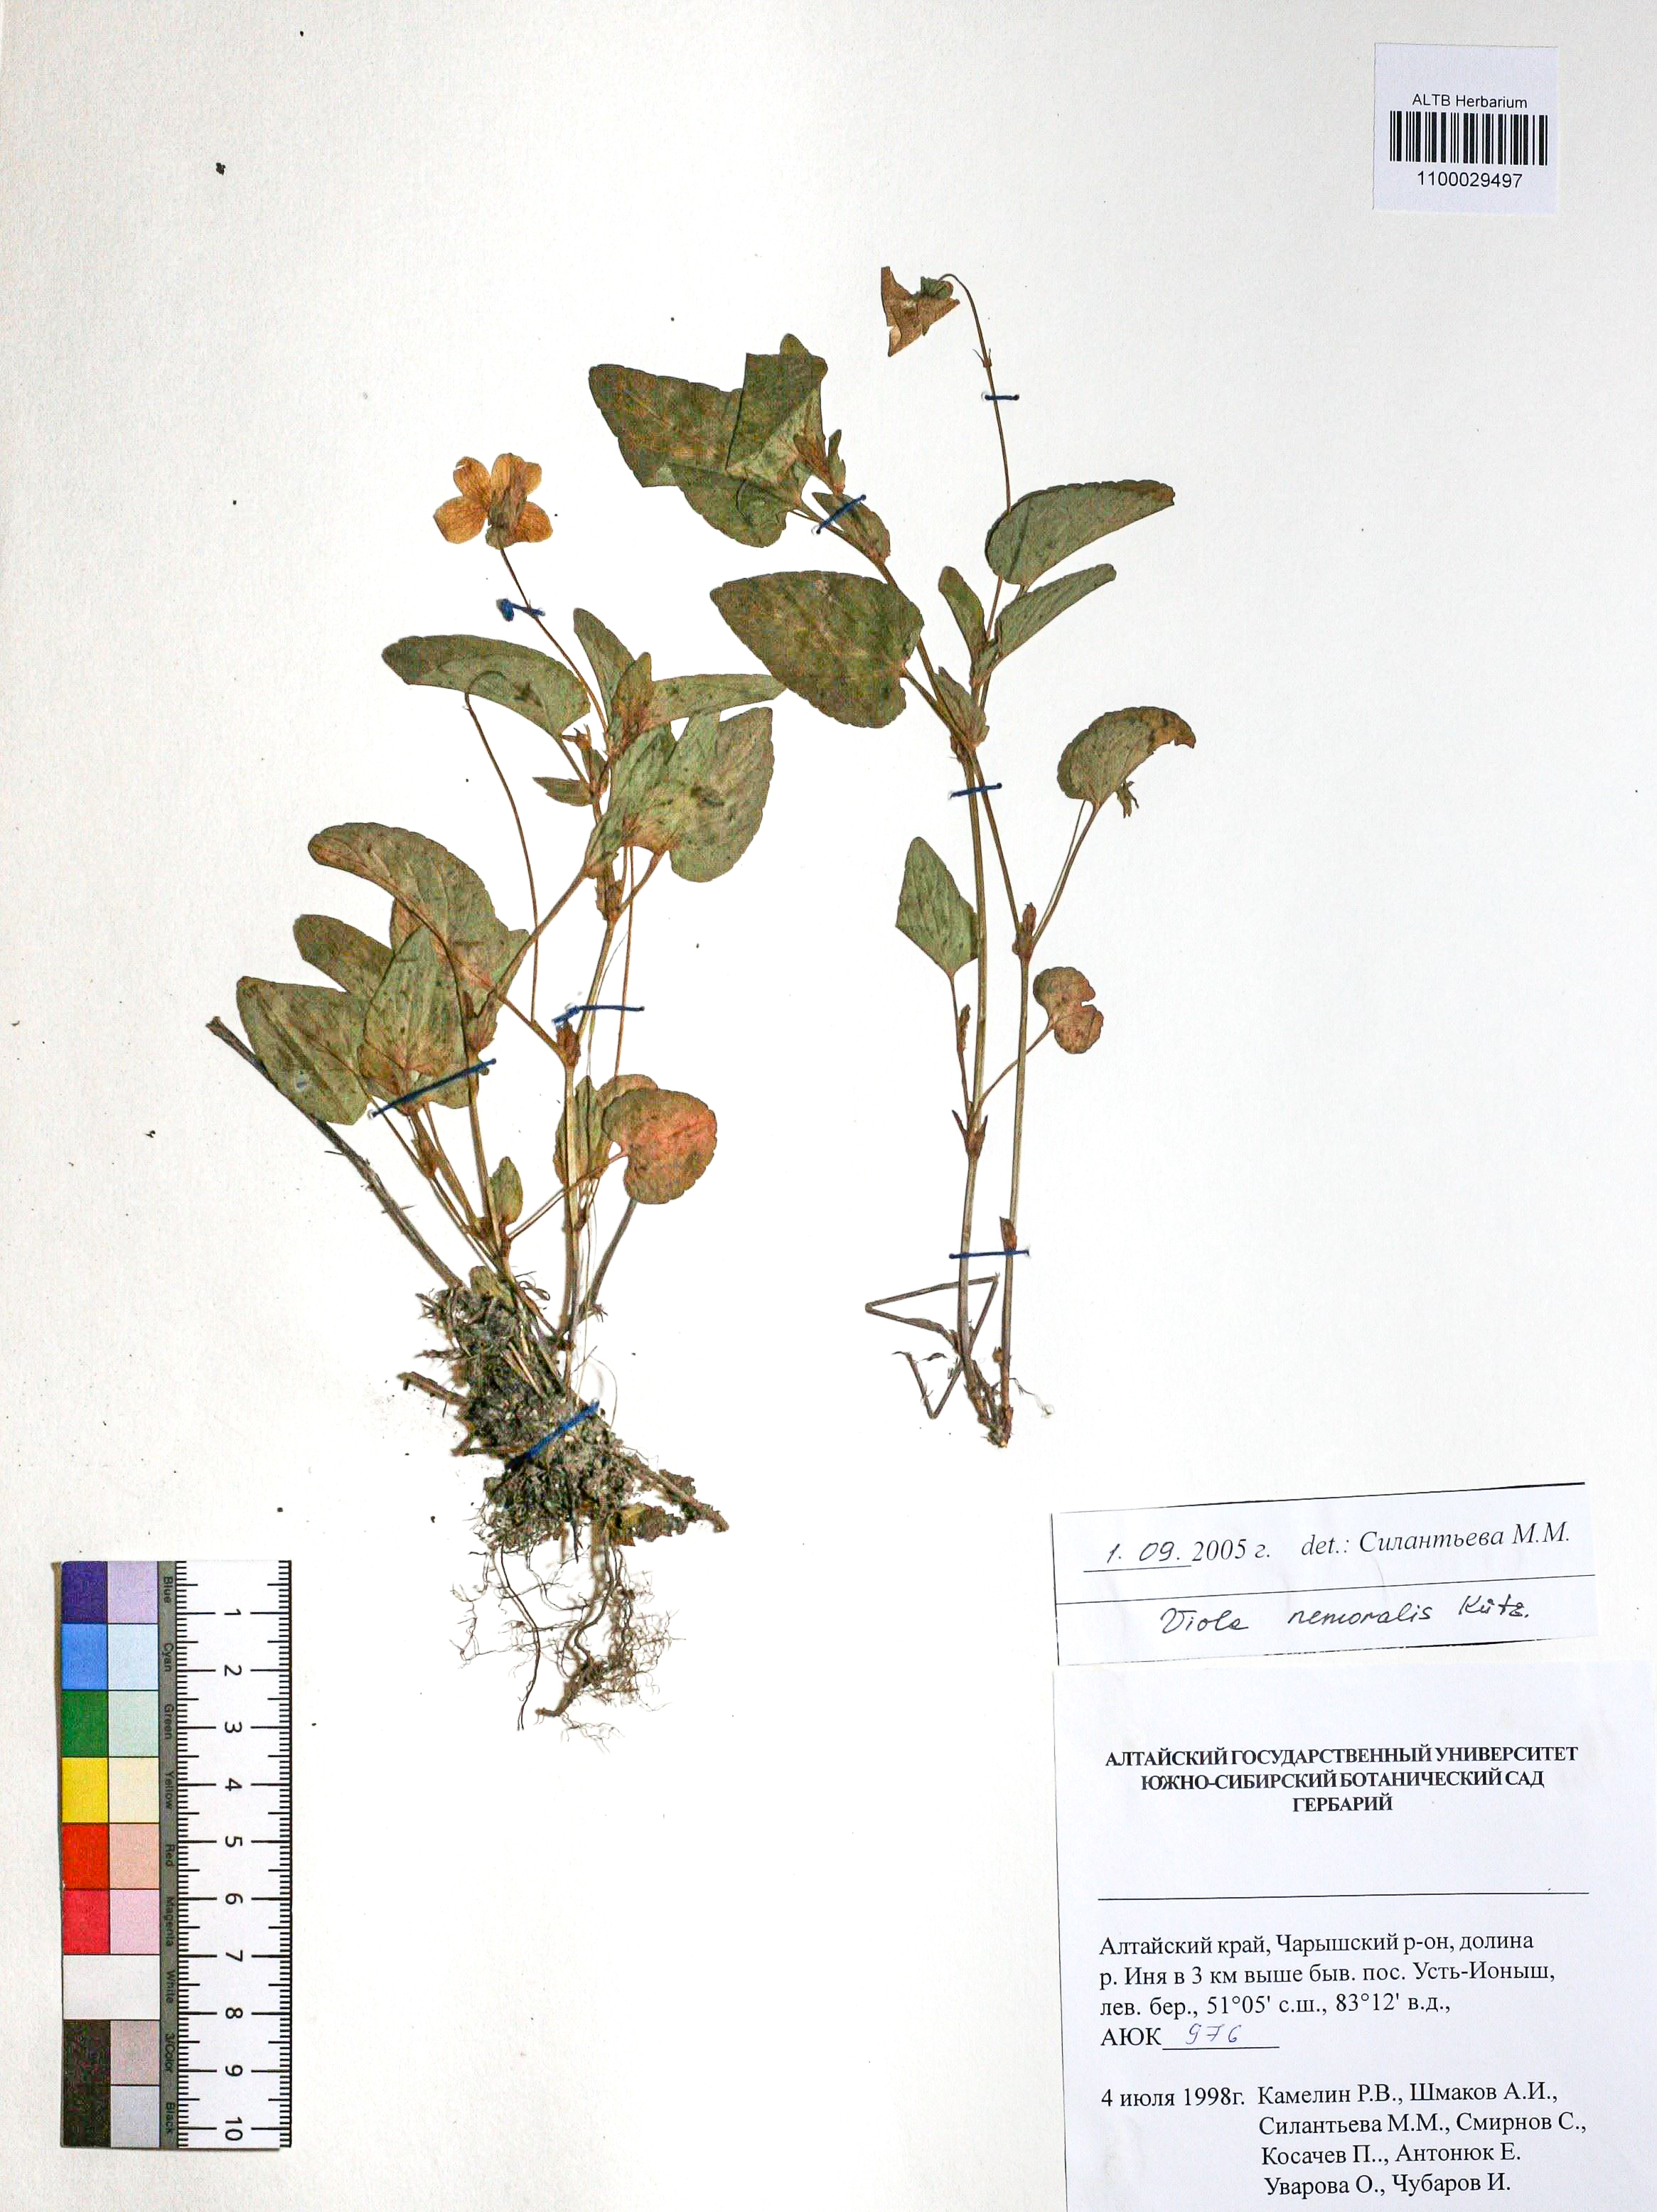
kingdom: Plantae
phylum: Tracheophyta
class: Magnoliopsida
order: Malpighiales
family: Violaceae
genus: Viola
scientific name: Viola ruppii
